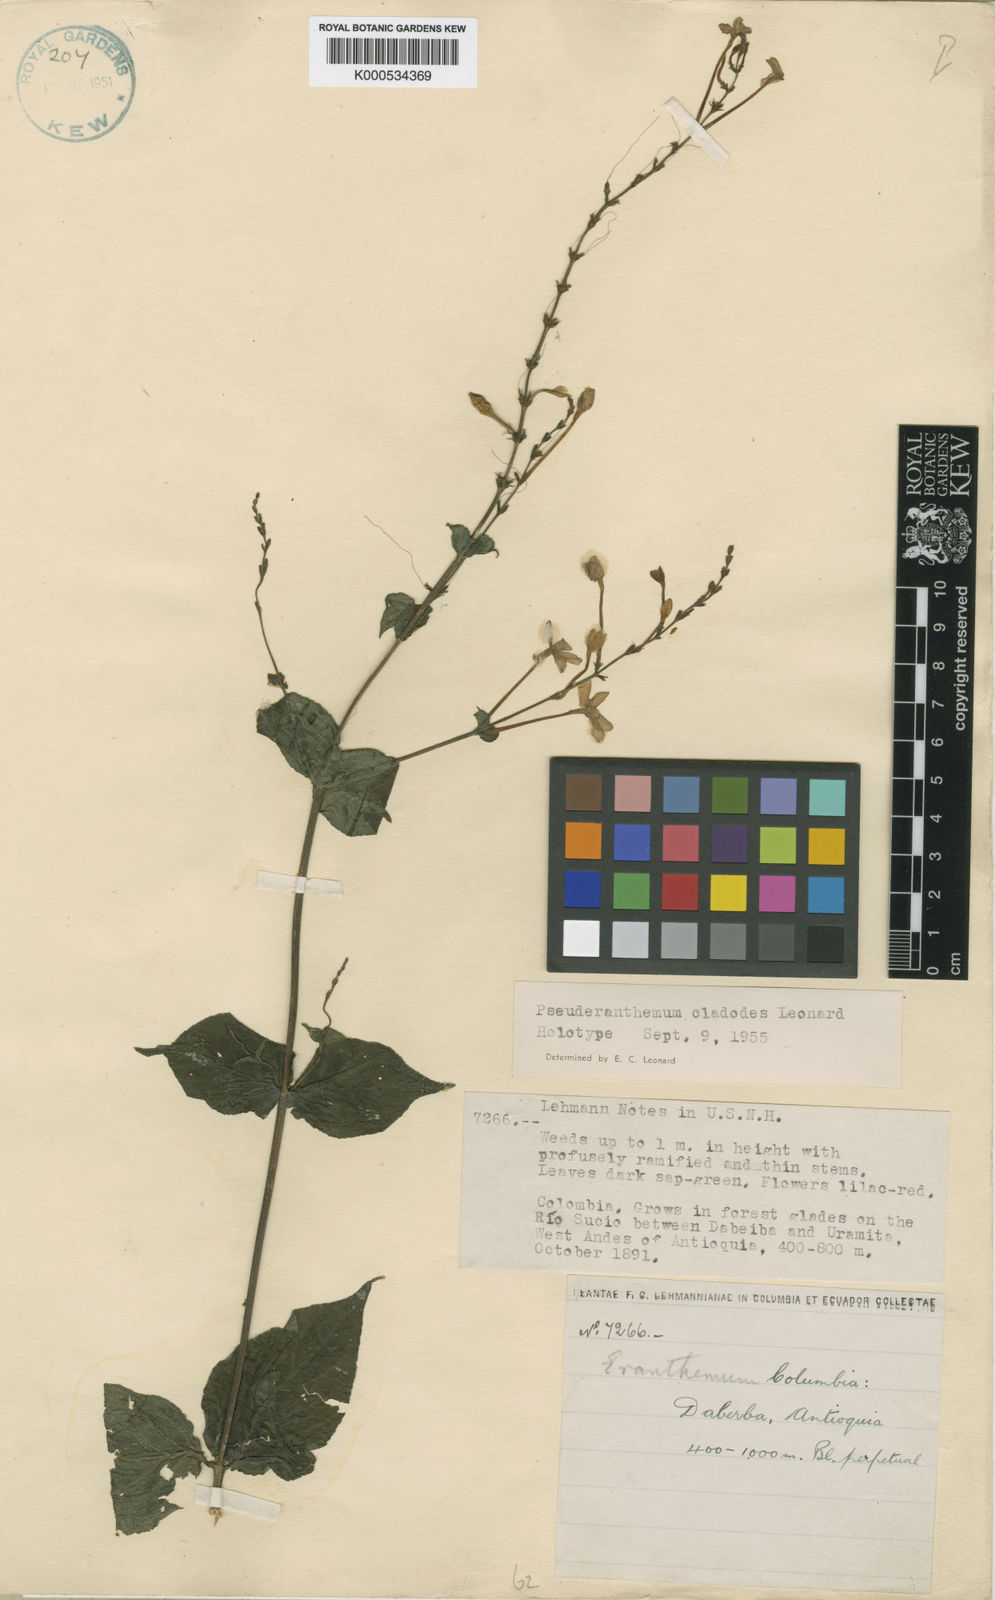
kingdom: Plantae
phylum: Tracheophyta
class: Magnoliopsida
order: Lamiales
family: Acanthaceae
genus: Pseuderanthemum
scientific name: Pseuderanthemum cladodes
